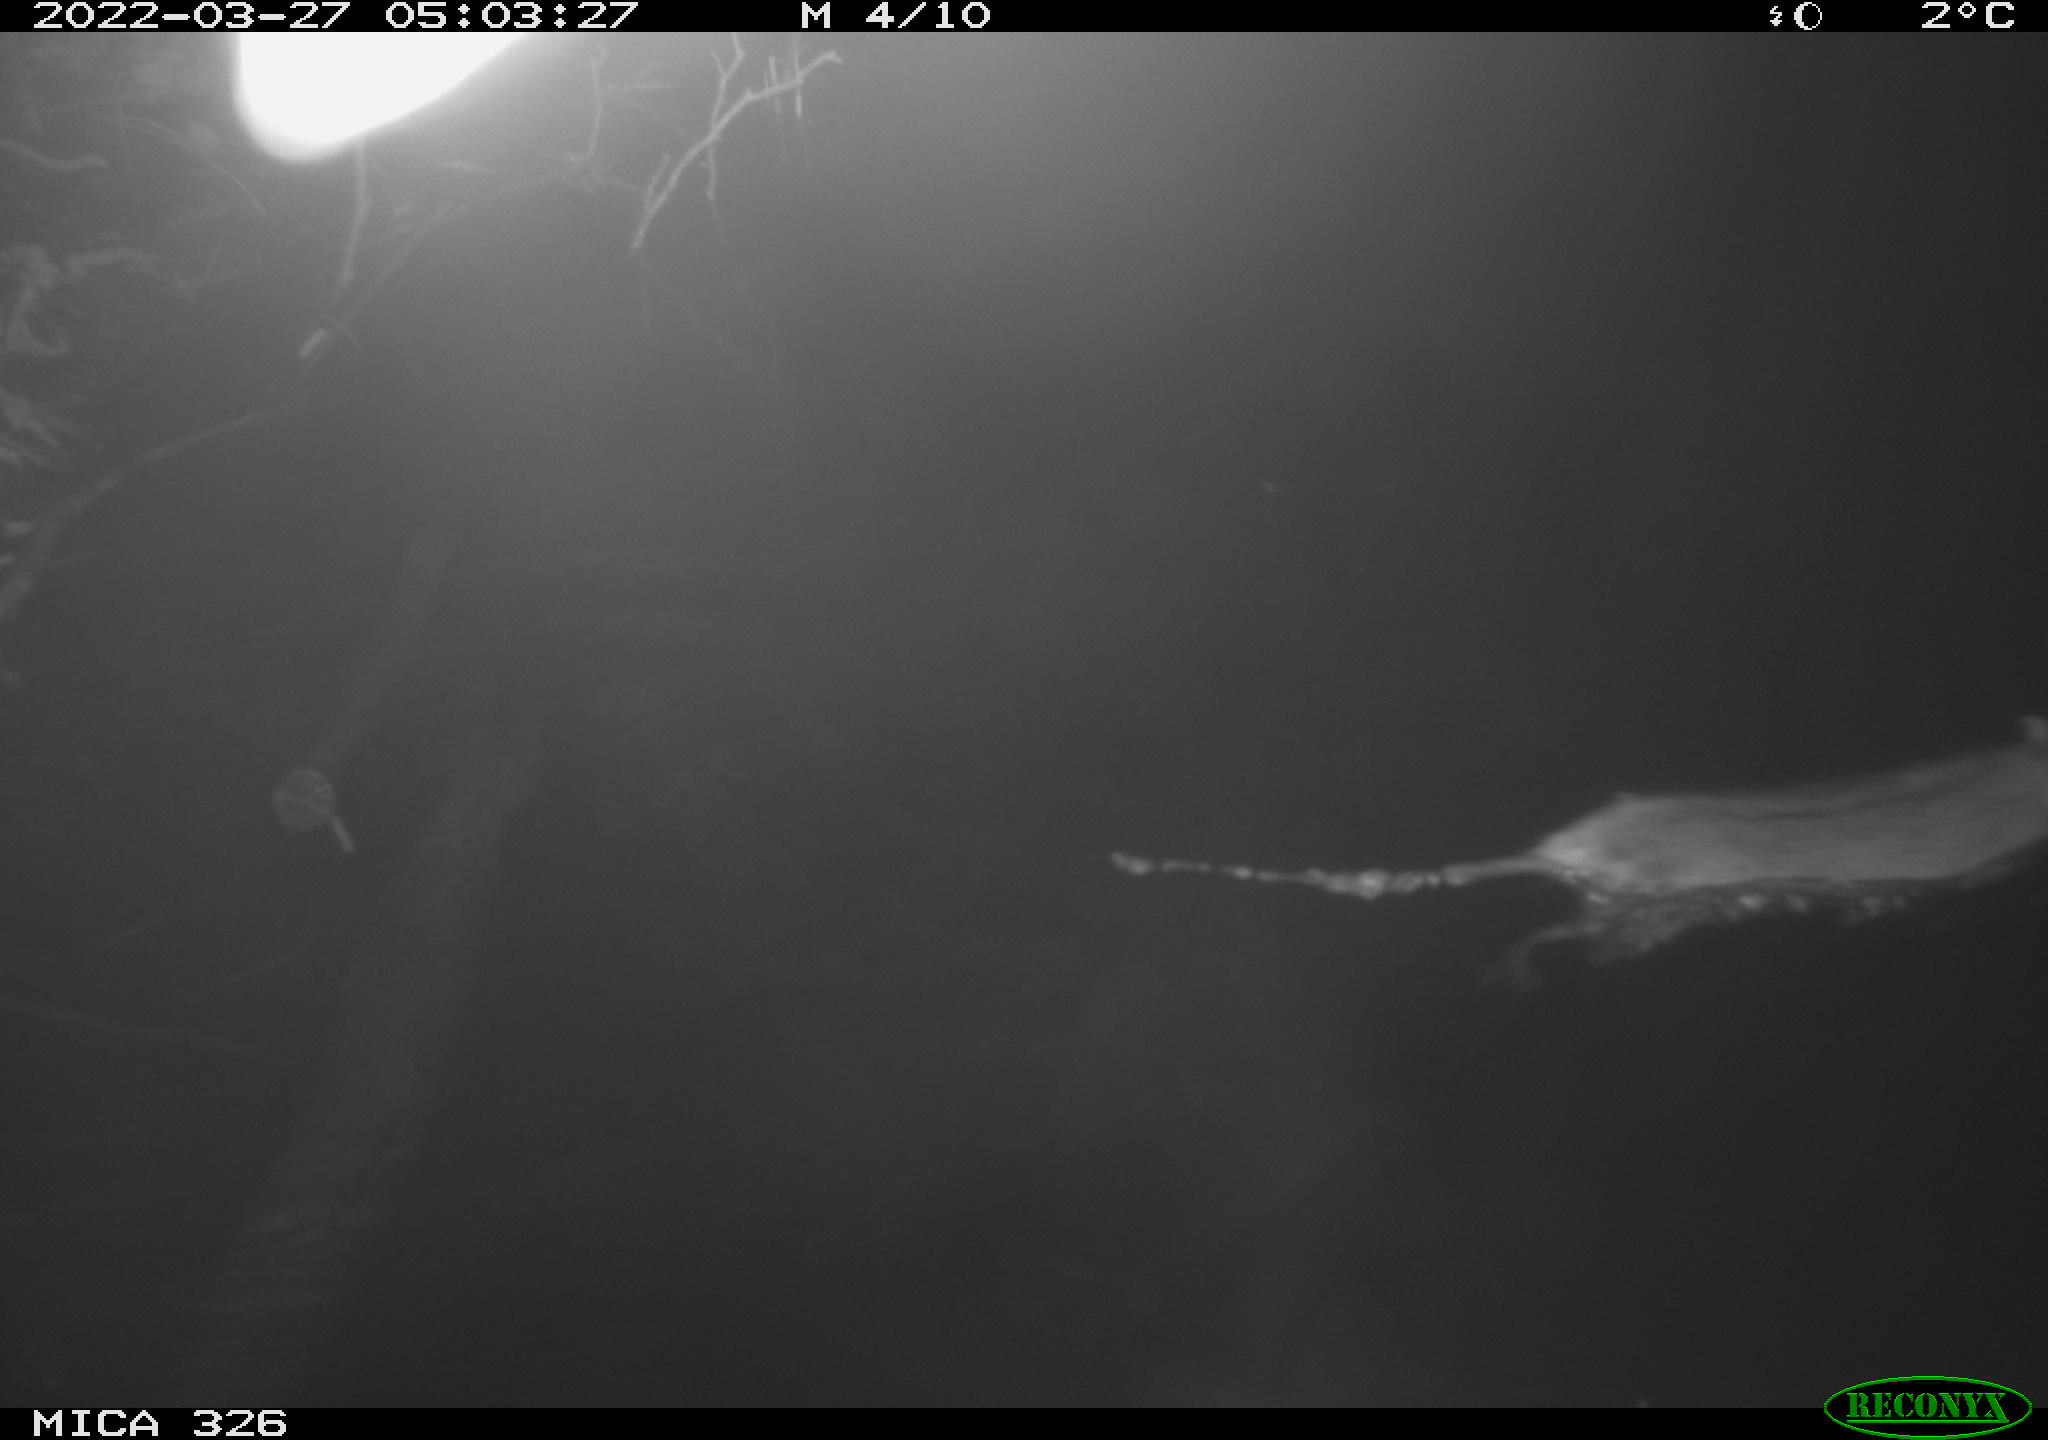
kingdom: Animalia
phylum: Chordata
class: Mammalia
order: Rodentia
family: Muridae
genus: Rattus
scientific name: Rattus norvegicus
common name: Brown rat
